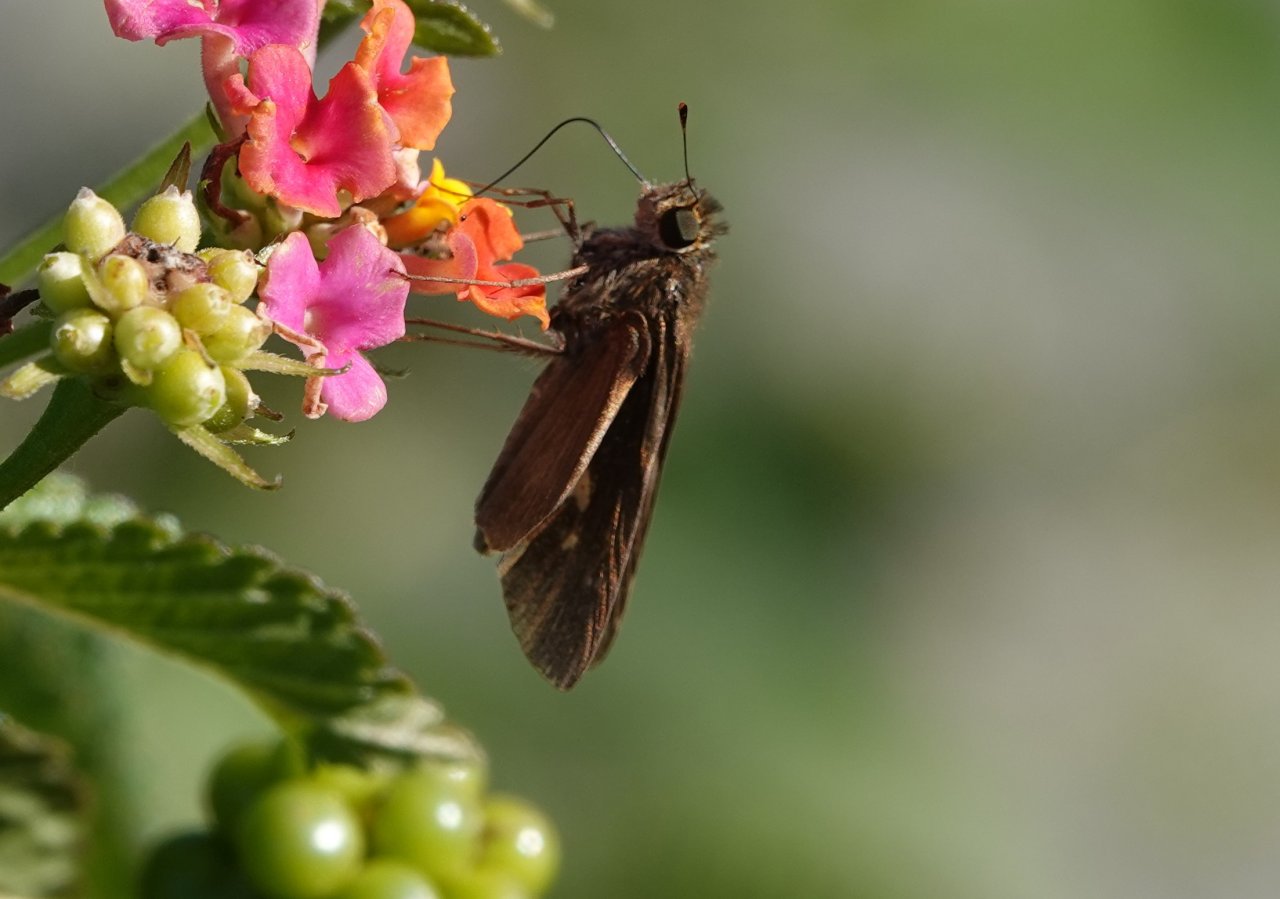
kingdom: Animalia
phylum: Arthropoda
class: Insecta
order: Lepidoptera
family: Hesperiidae
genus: Panoquina
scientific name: Panoquina ocola
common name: Ocola Skipper
